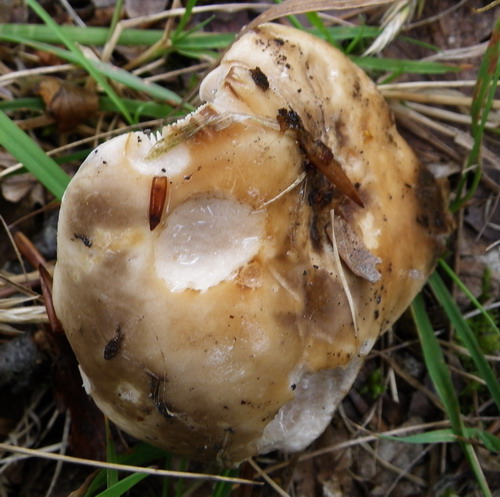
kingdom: Fungi
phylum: Basidiomycota
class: Agaricomycetes
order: Russulales
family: Russulaceae
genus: Russula
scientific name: Russula densifolia
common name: tætbladet skørhat
